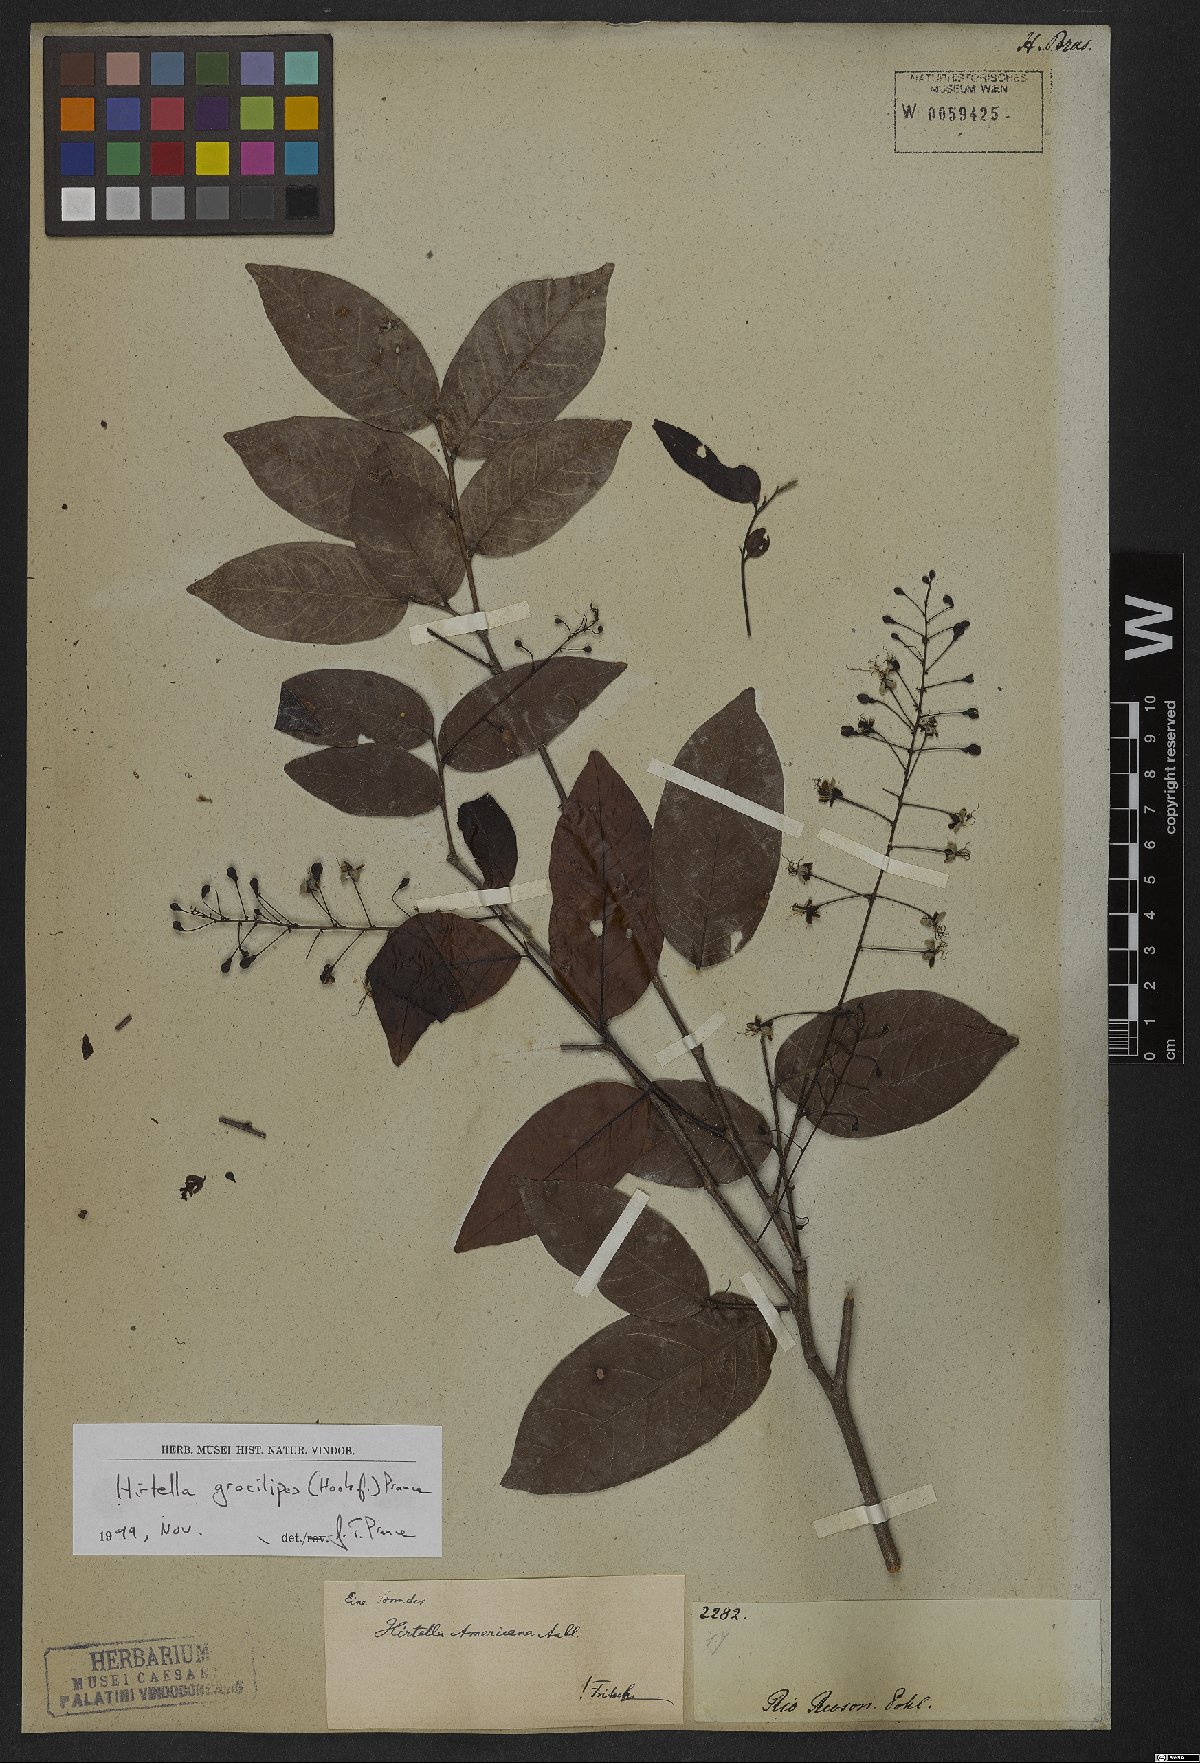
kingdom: Plantae
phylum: Tracheophyta
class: Magnoliopsida
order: Malpighiales
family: Chrysobalanaceae
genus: Hirtella
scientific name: Hirtella gracilipes
